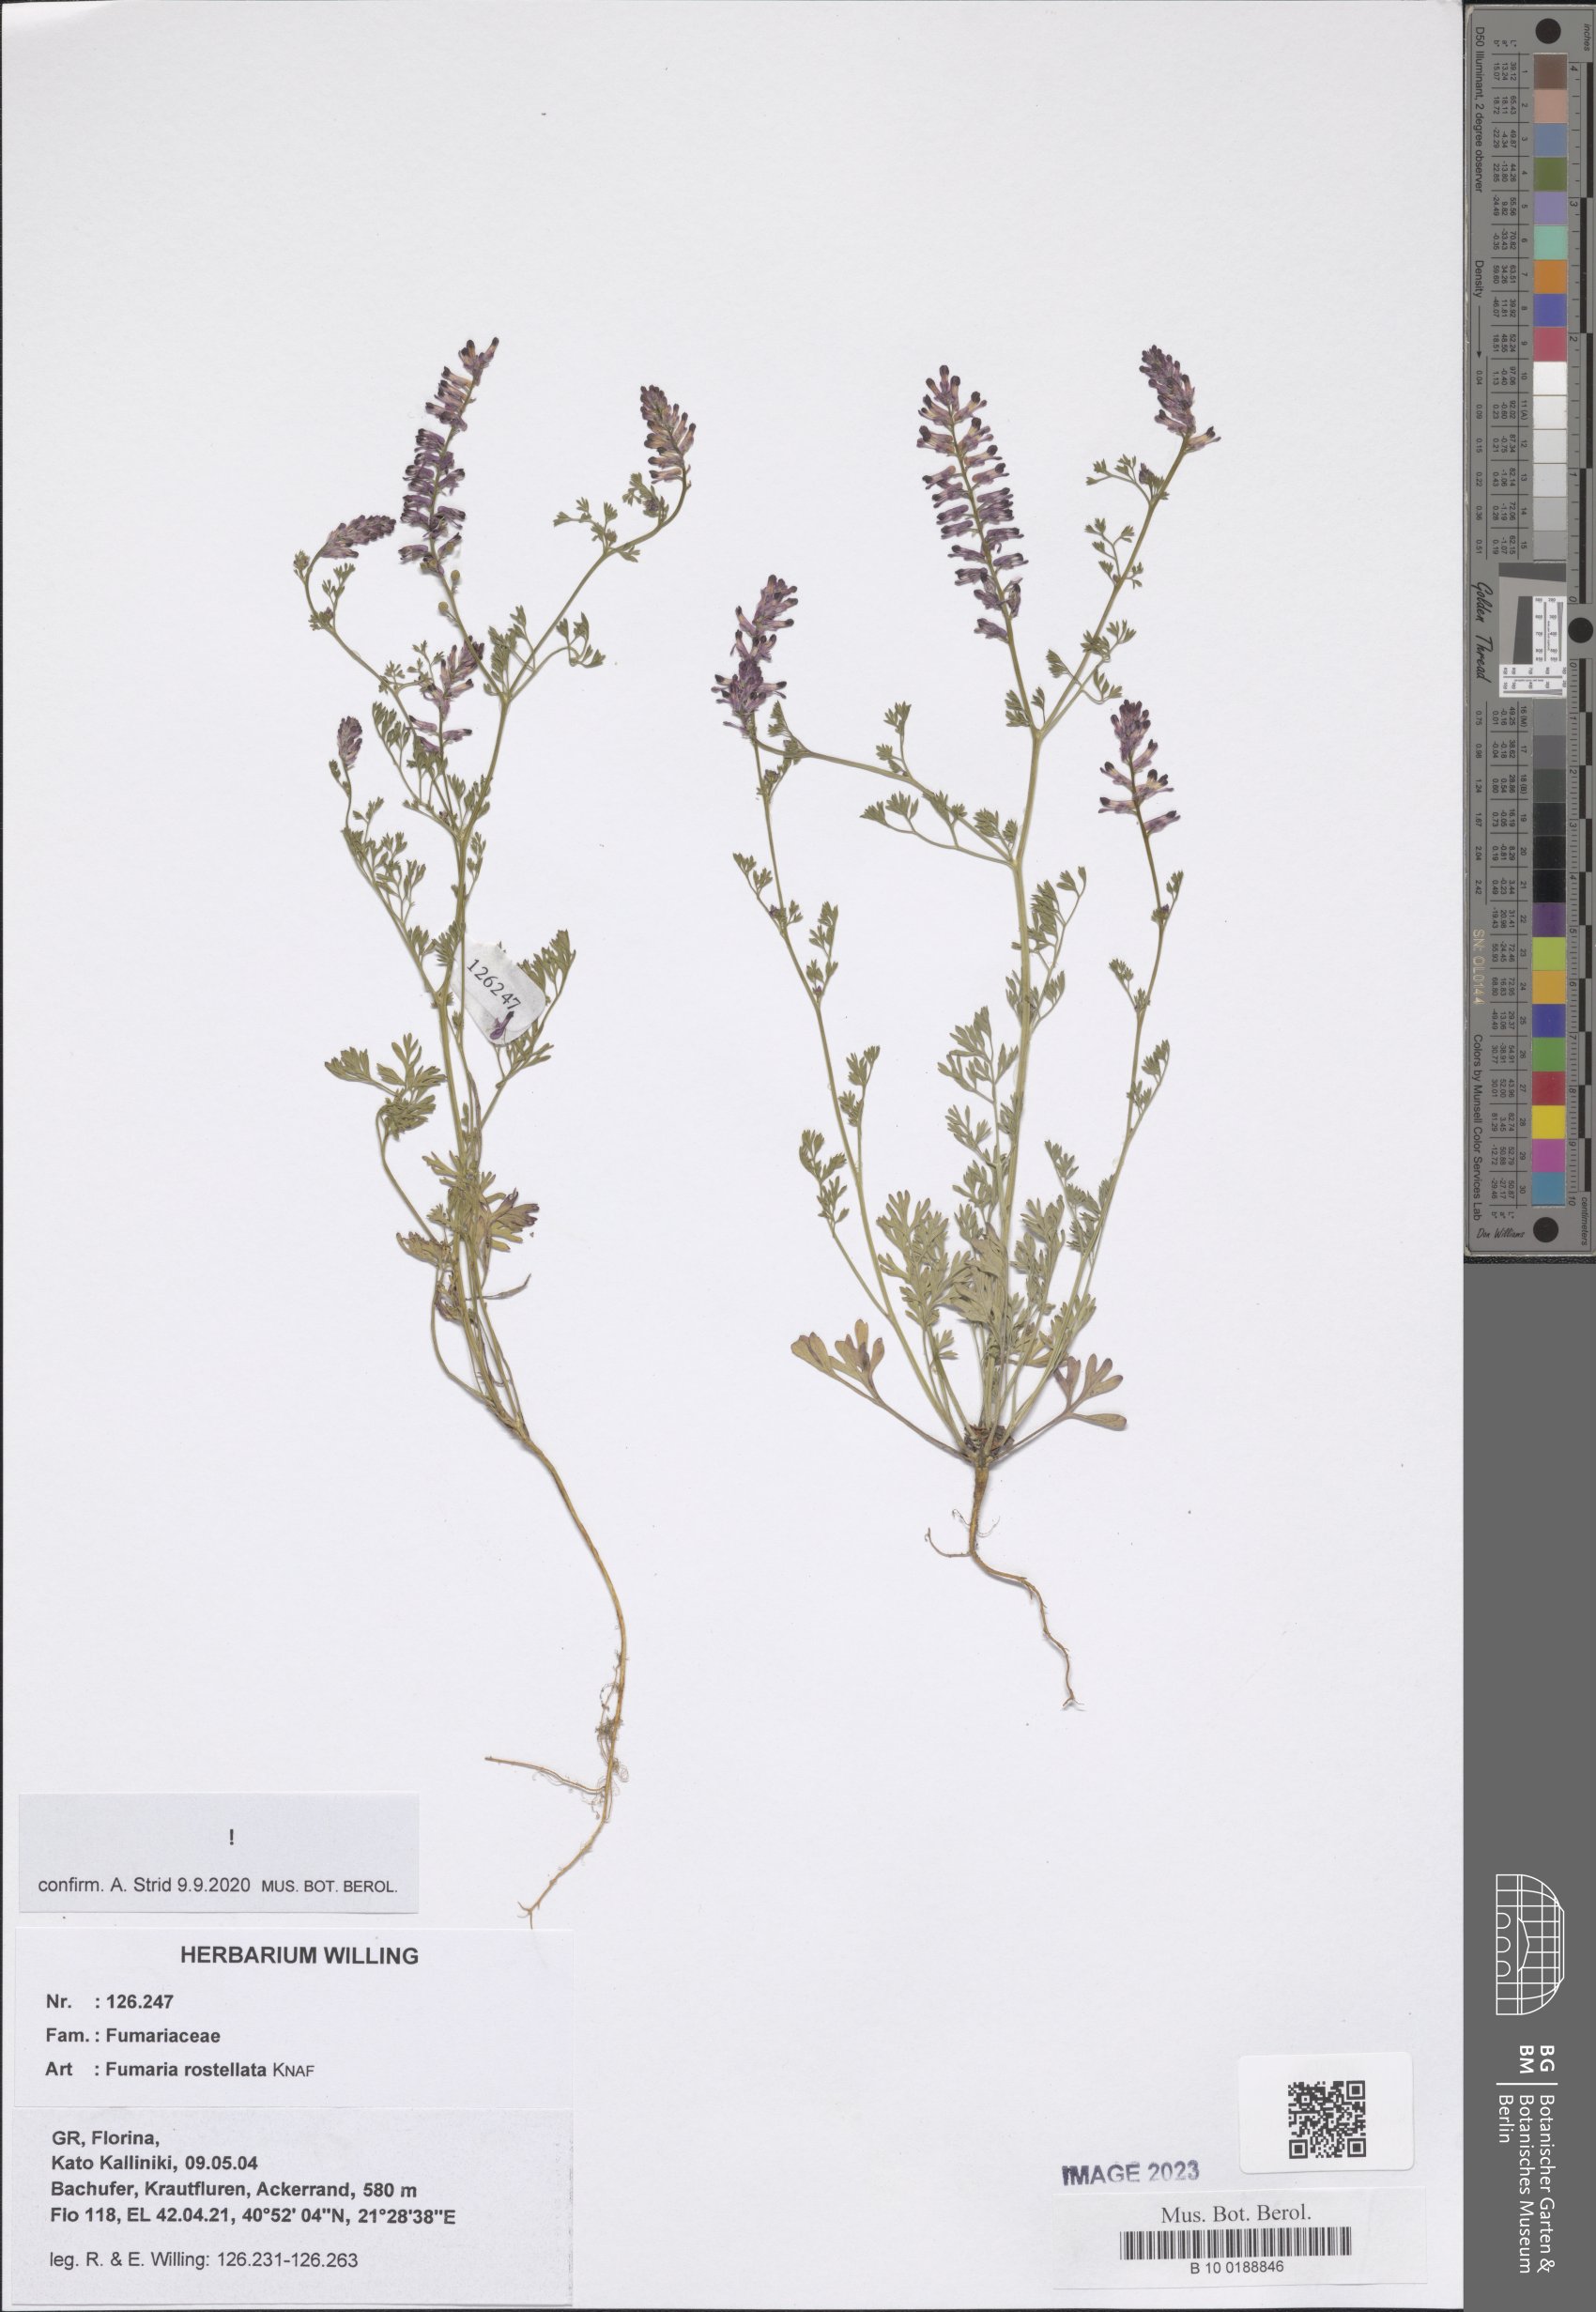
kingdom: Plantae
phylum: Tracheophyta
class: Magnoliopsida
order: Ranunculales
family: Papaveraceae
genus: Fumaria
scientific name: Fumaria rostellata
